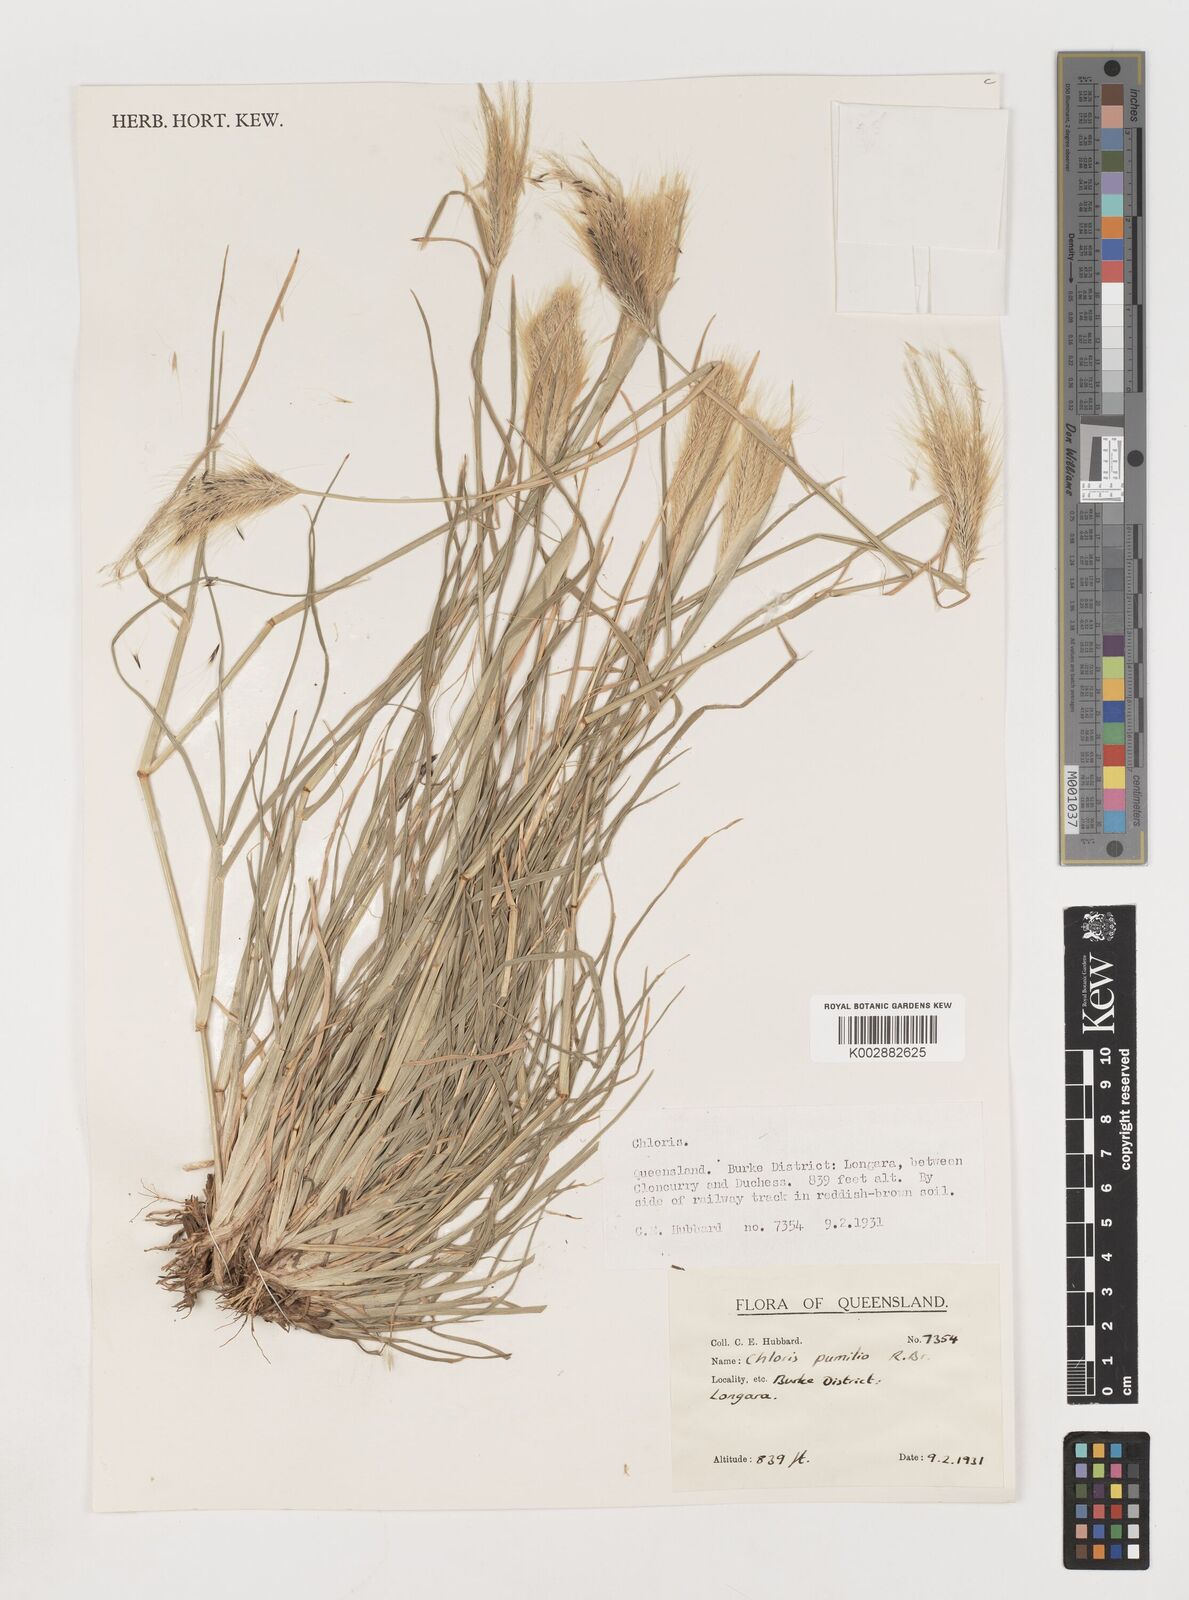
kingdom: Plantae
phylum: Tracheophyta
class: Liliopsida
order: Poales
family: Poaceae
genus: Chloris
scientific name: Chloris pumilio
